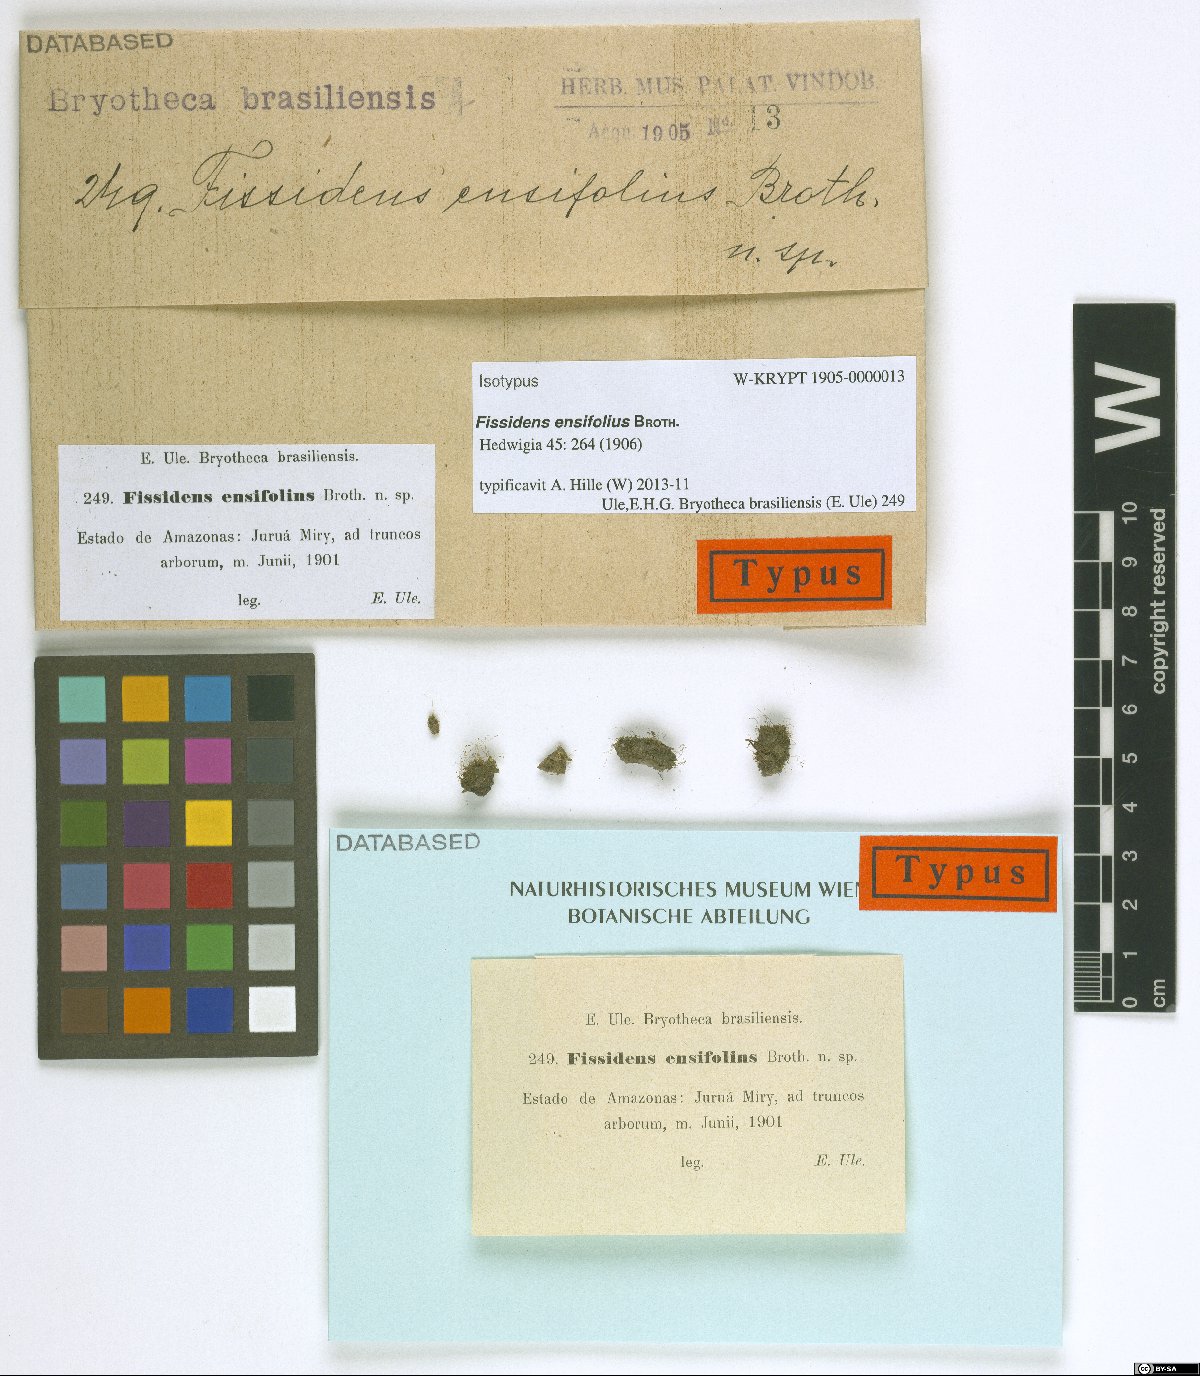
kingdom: Plantae
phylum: Bryophyta
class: Bryopsida
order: Dicranales
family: Fissidentaceae
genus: Fissidens
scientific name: Fissidens biformis
